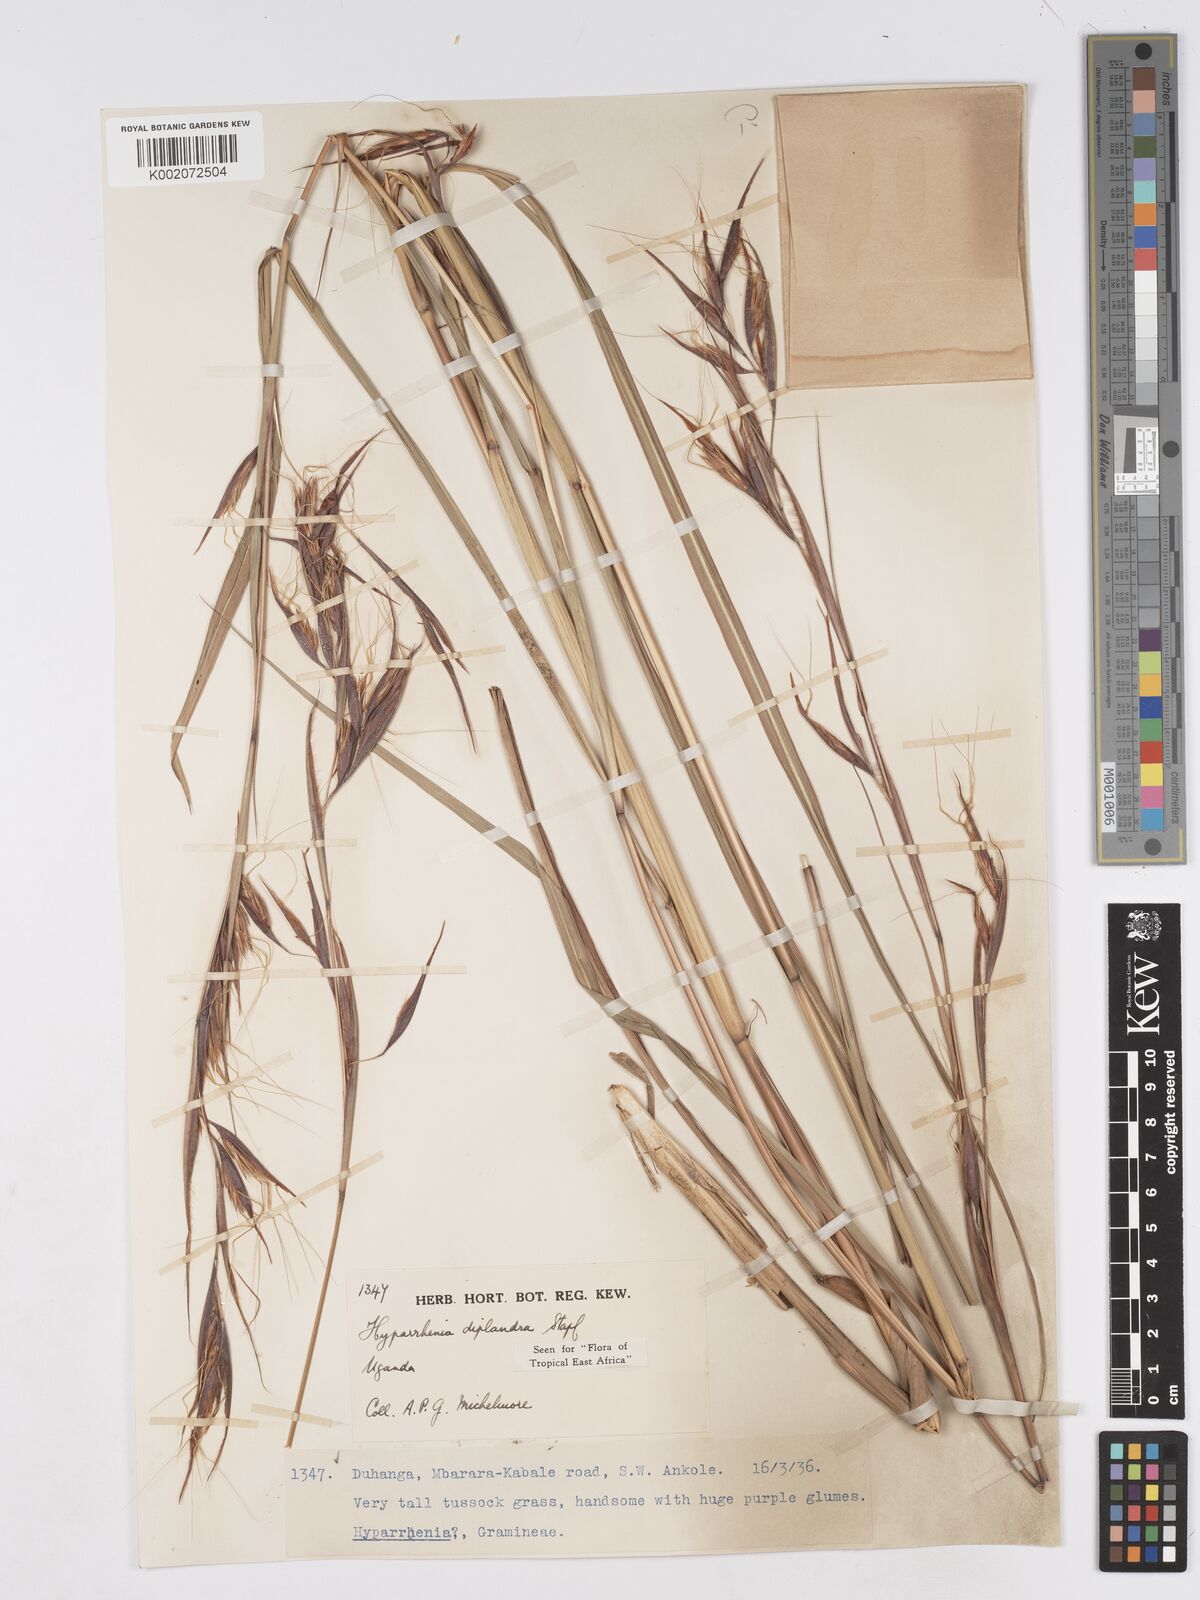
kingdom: Plantae
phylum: Tracheophyta
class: Liliopsida
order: Poales
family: Poaceae
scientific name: Poaceae
